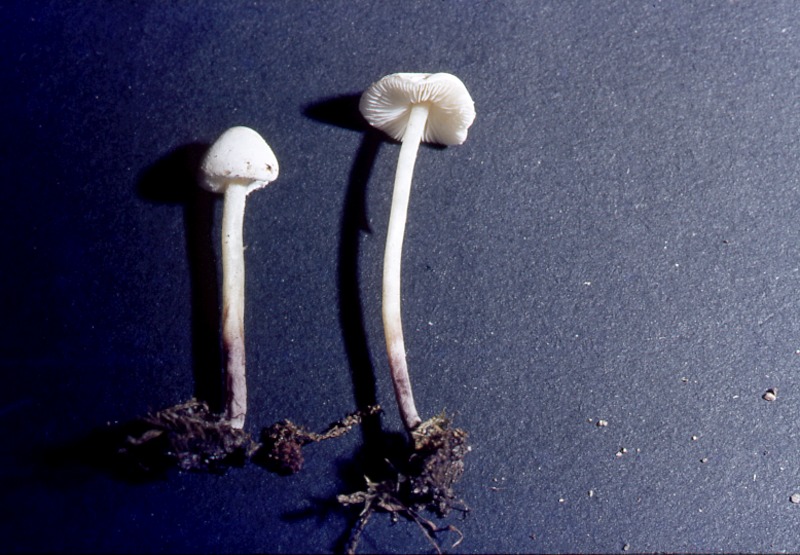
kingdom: Fungi
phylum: Basidiomycota
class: Agaricomycetes
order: Agaricales
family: Agaricaceae
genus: Cystolepiota
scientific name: Cystolepiota seminuda
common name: Bearded dapperling
